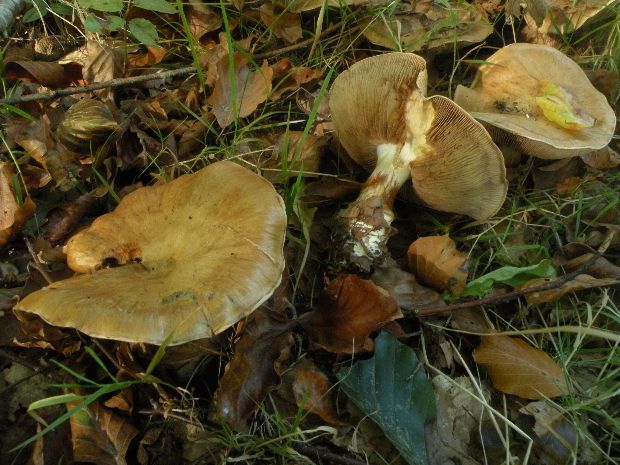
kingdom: Fungi
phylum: Basidiomycota
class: Agaricomycetes
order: Agaricales
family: Cortinariaceae
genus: Cortinarius
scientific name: Cortinarius anserinus
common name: bøge-slørhat
